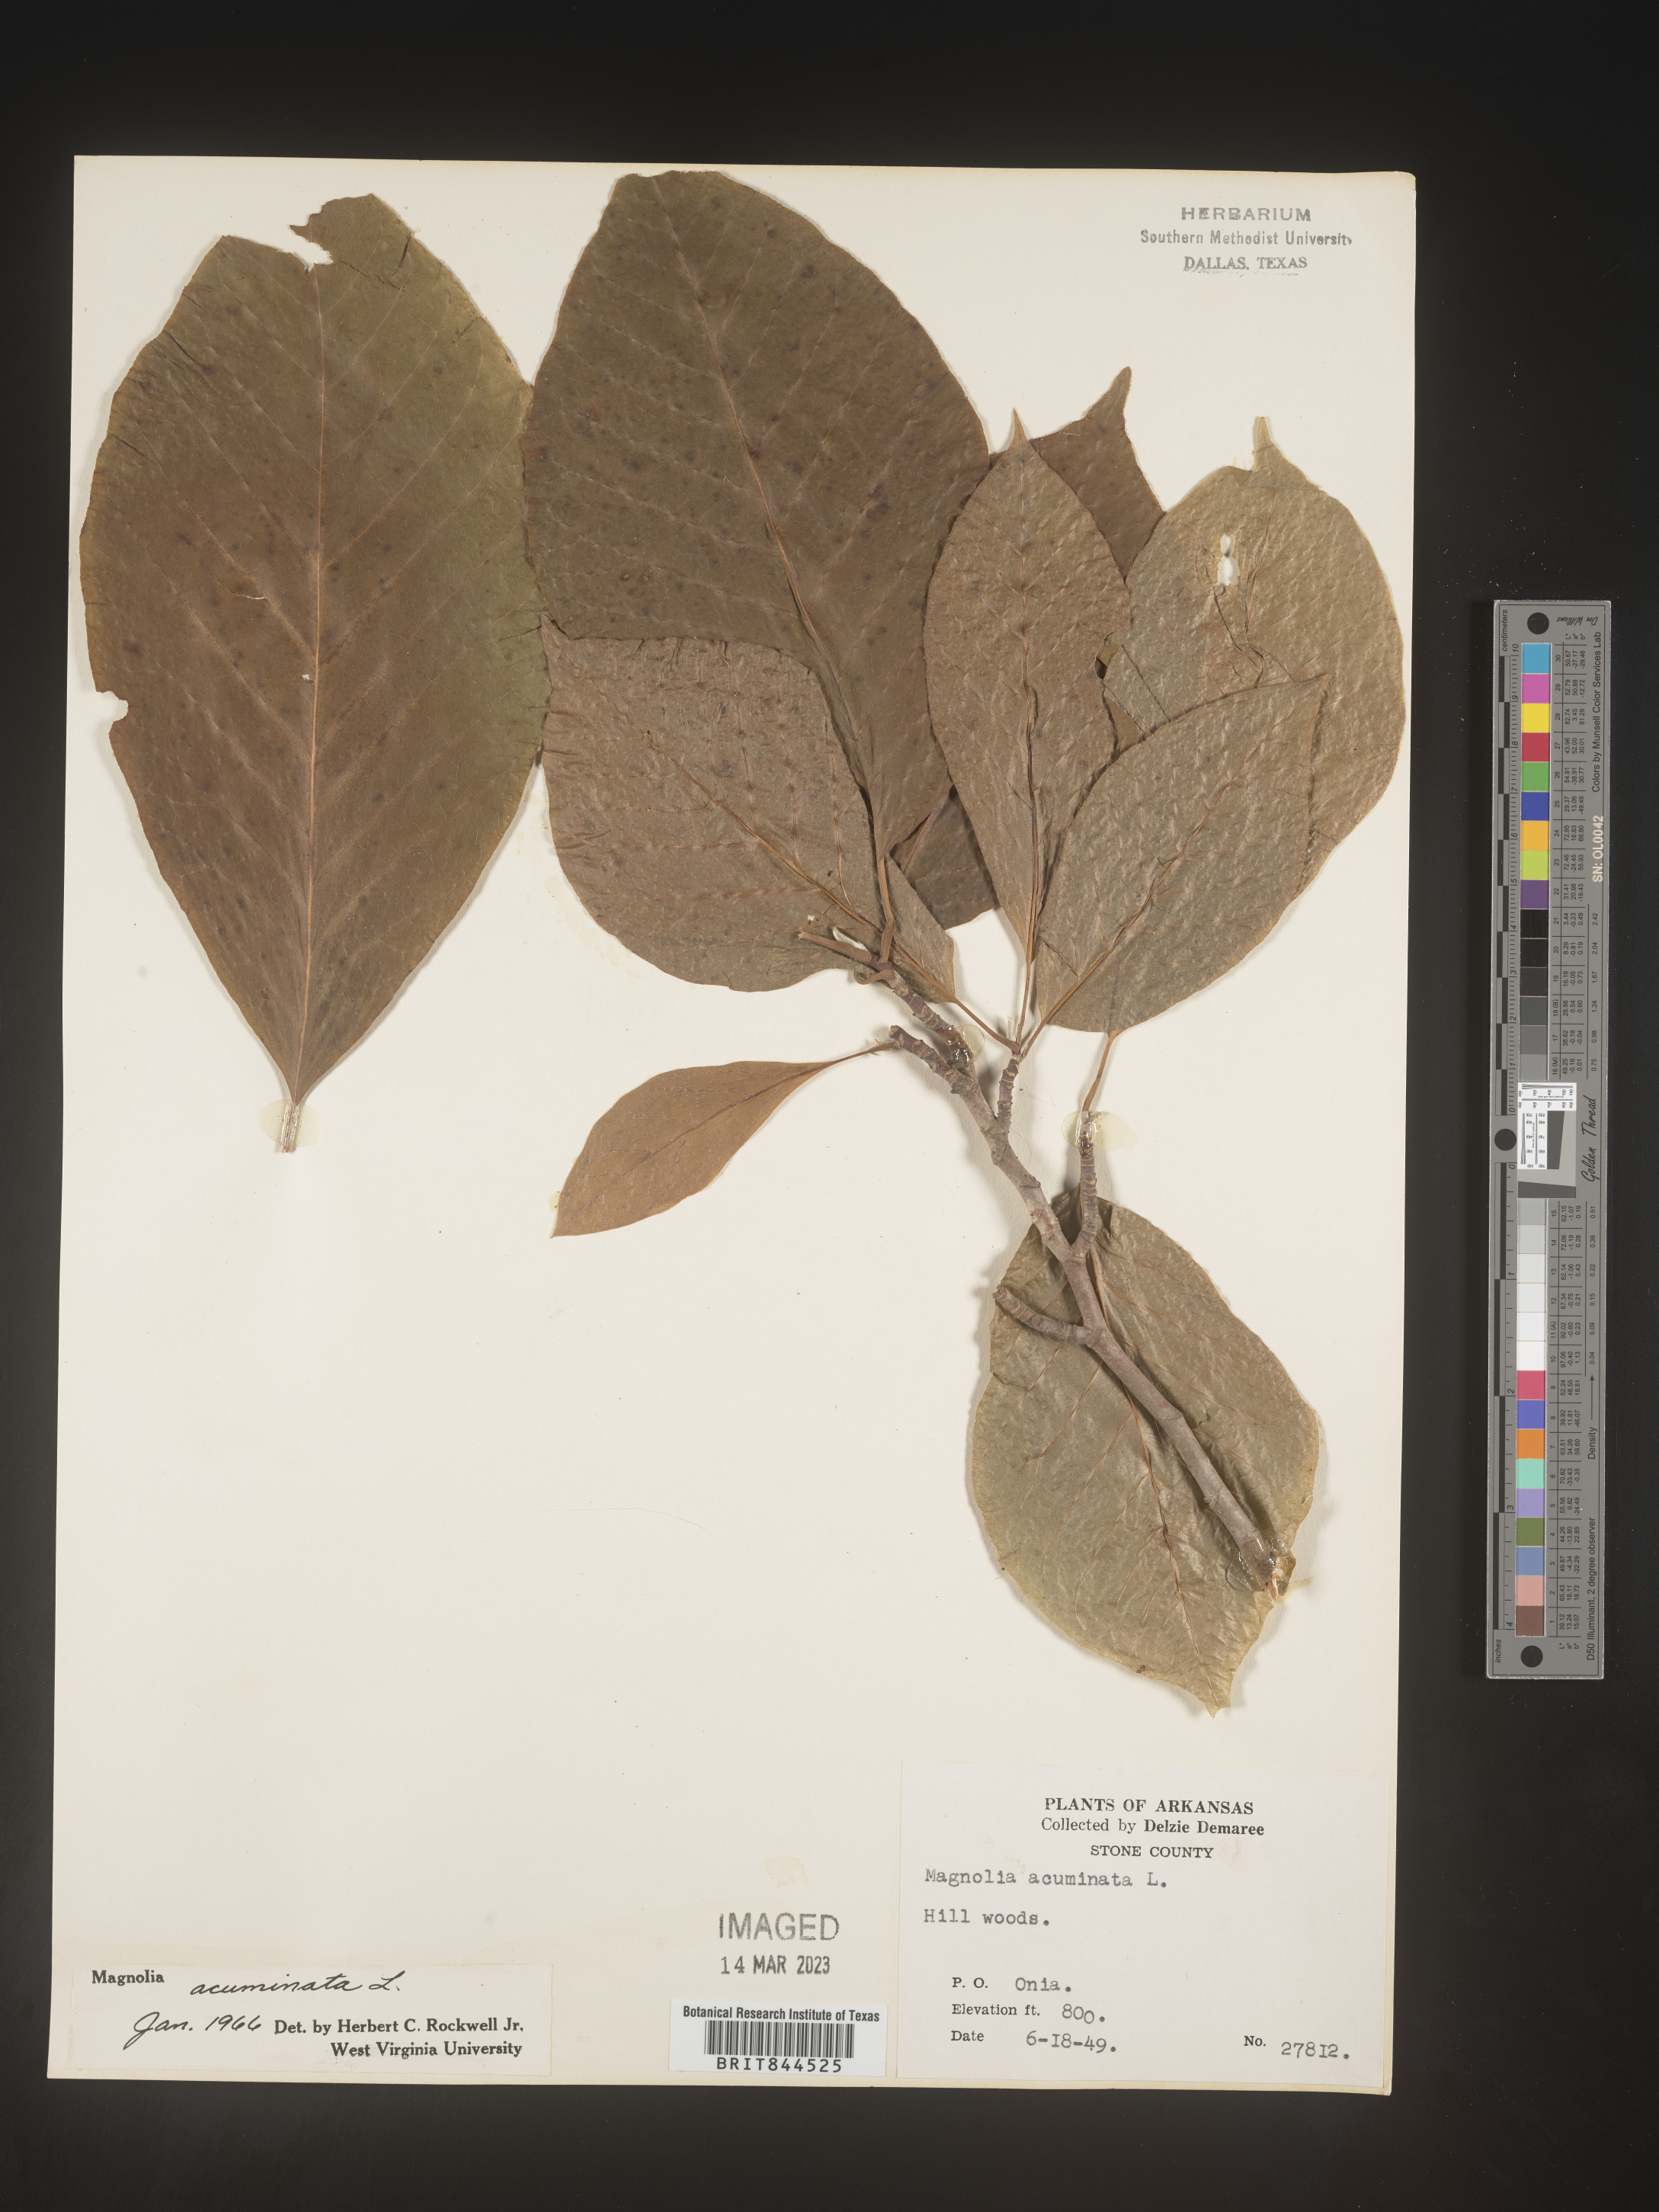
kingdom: Plantae
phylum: Tracheophyta
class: Magnoliopsida
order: Magnoliales
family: Magnoliaceae
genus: Magnolia
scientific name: Magnolia acuminata
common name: Cucumber magnolia
